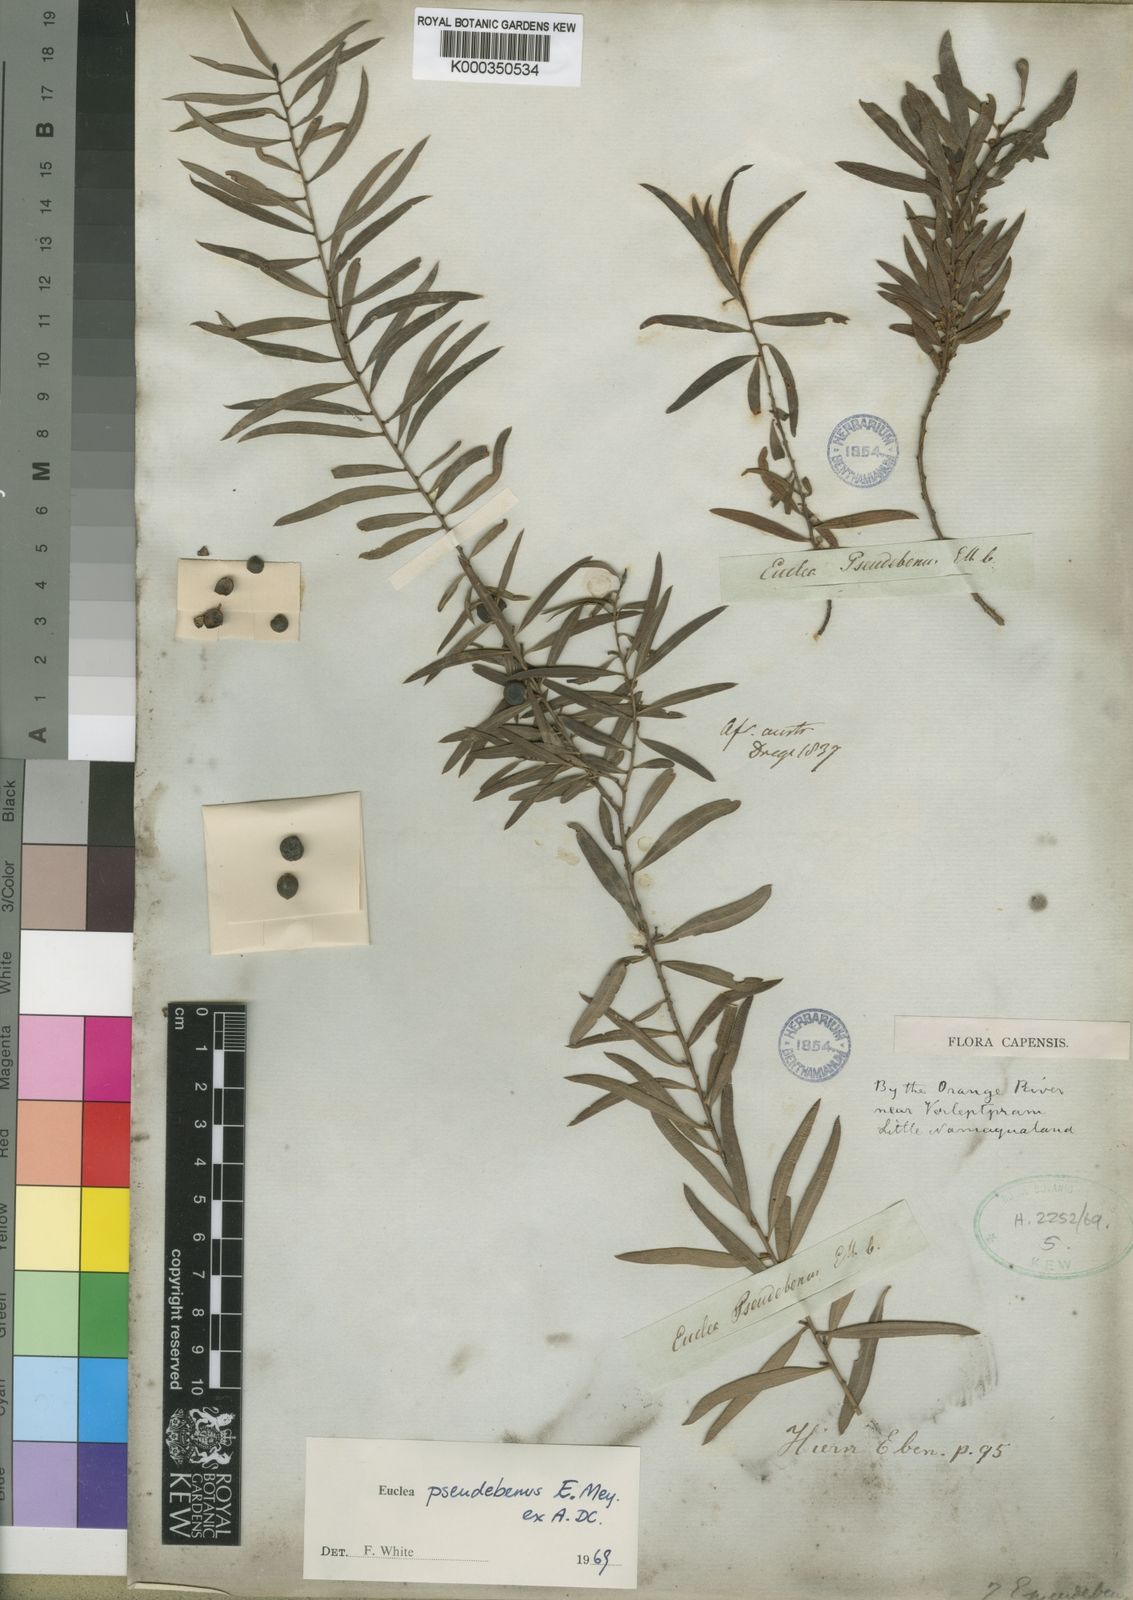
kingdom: Plantae
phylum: Tracheophyta
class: Magnoliopsida
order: Ericales
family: Ebenaceae
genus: Euclea
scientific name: Euclea
